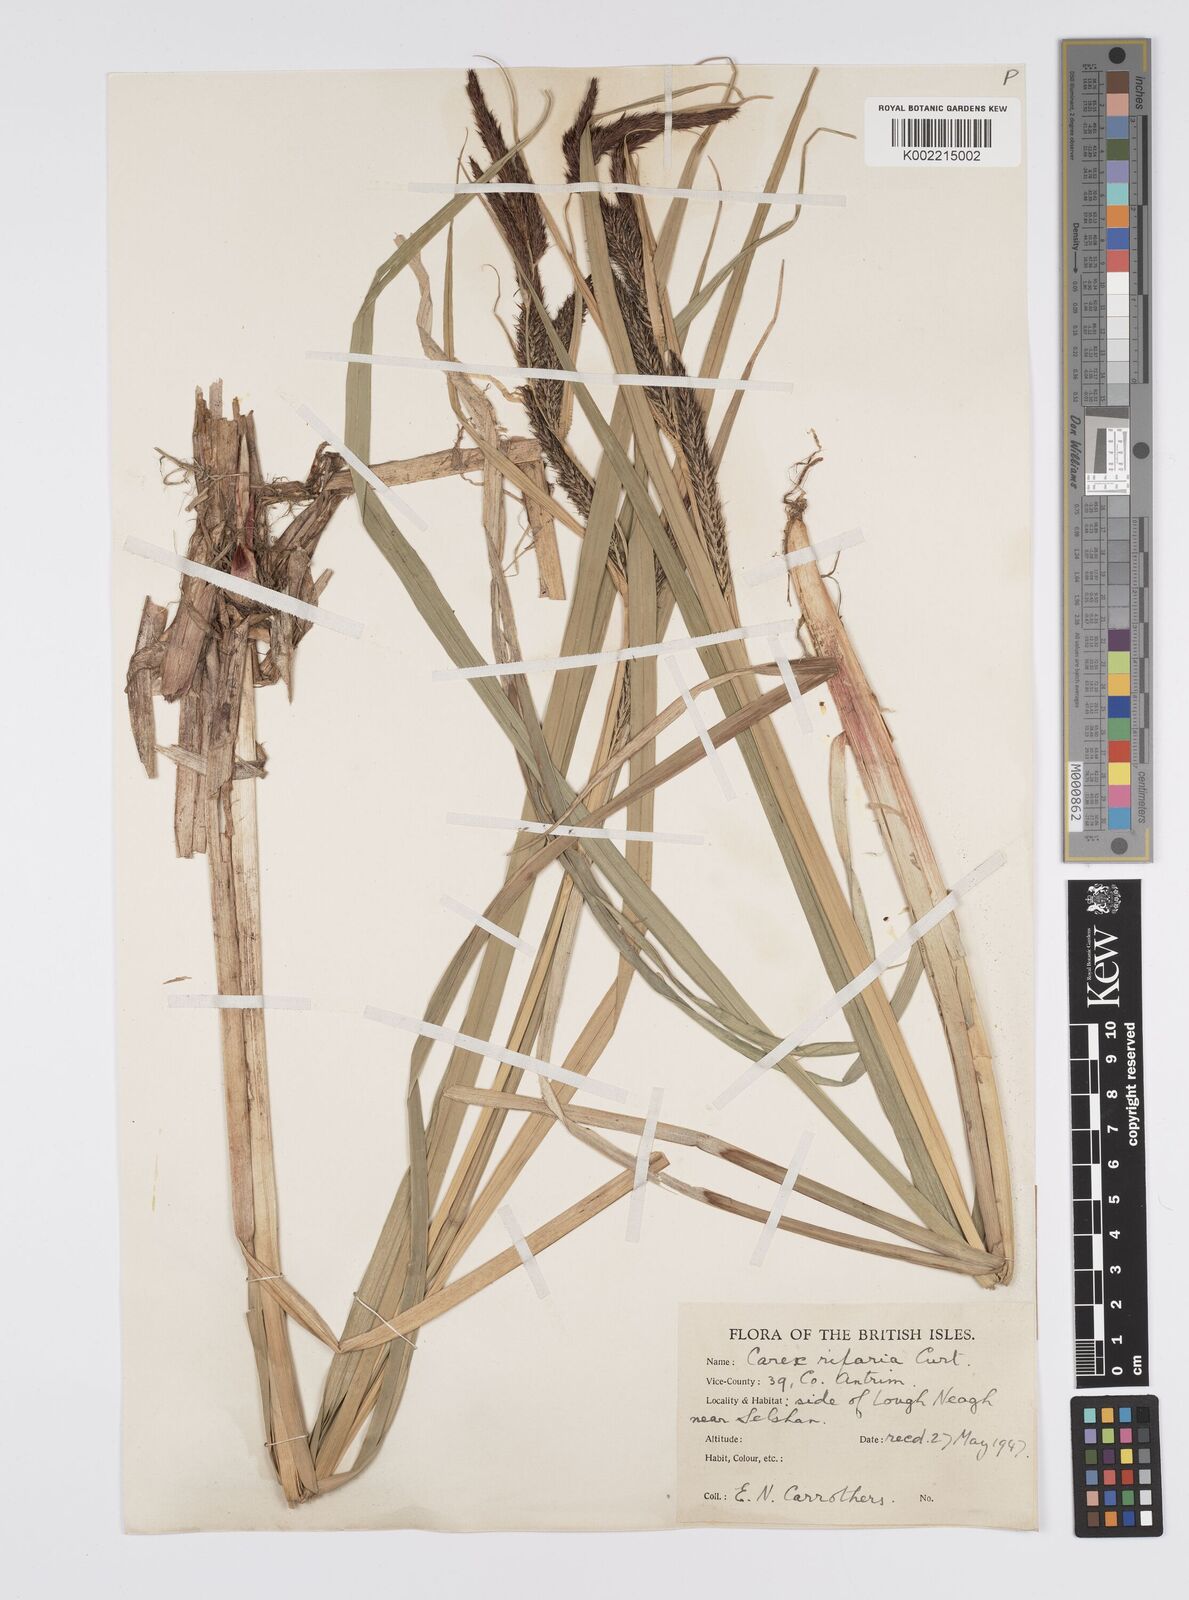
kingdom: Plantae
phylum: Tracheophyta
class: Liliopsida
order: Poales
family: Cyperaceae
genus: Carex
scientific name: Carex riparia
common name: Greater pond-sedge
